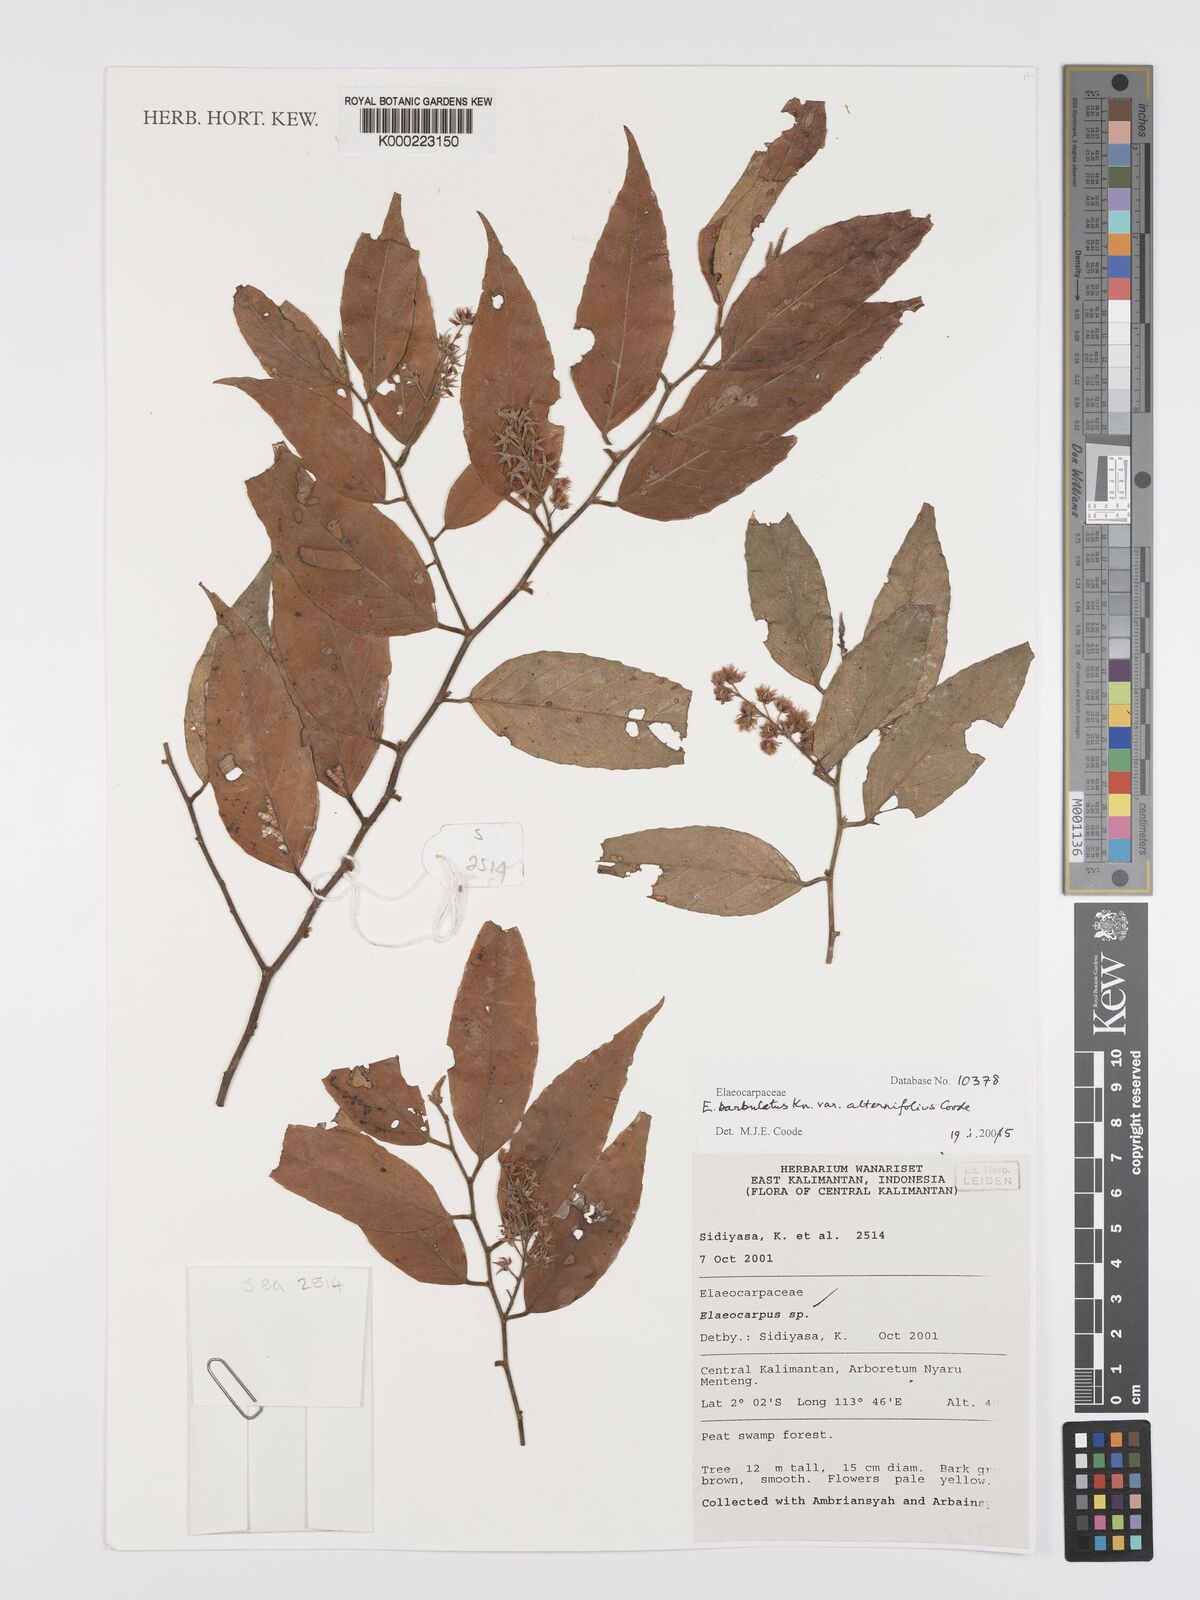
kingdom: Plantae
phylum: Tracheophyta
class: Magnoliopsida
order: Oxalidales
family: Elaeocarpaceae
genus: Elaeocarpus
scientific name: Elaeocarpus barbulatus
